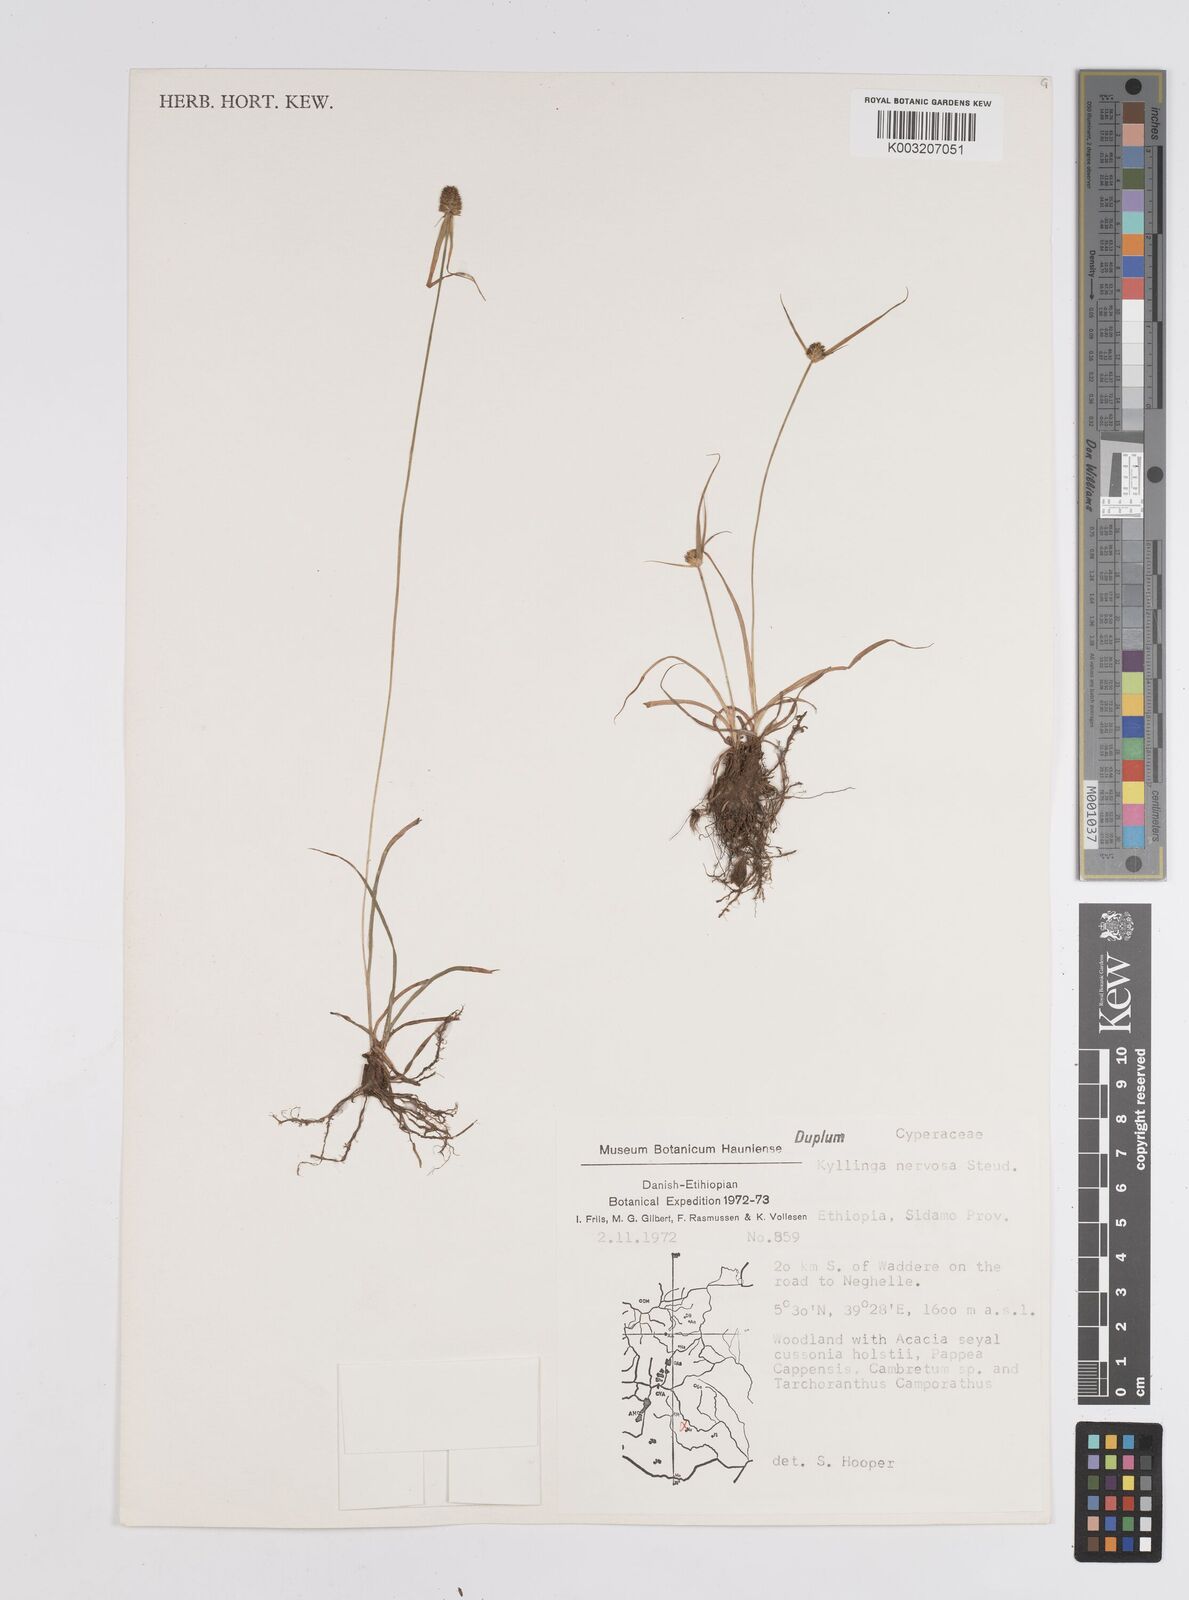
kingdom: Plantae
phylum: Tracheophyta
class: Liliopsida
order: Poales
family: Cyperaceae
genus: Cyperus
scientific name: Cyperus costatus
